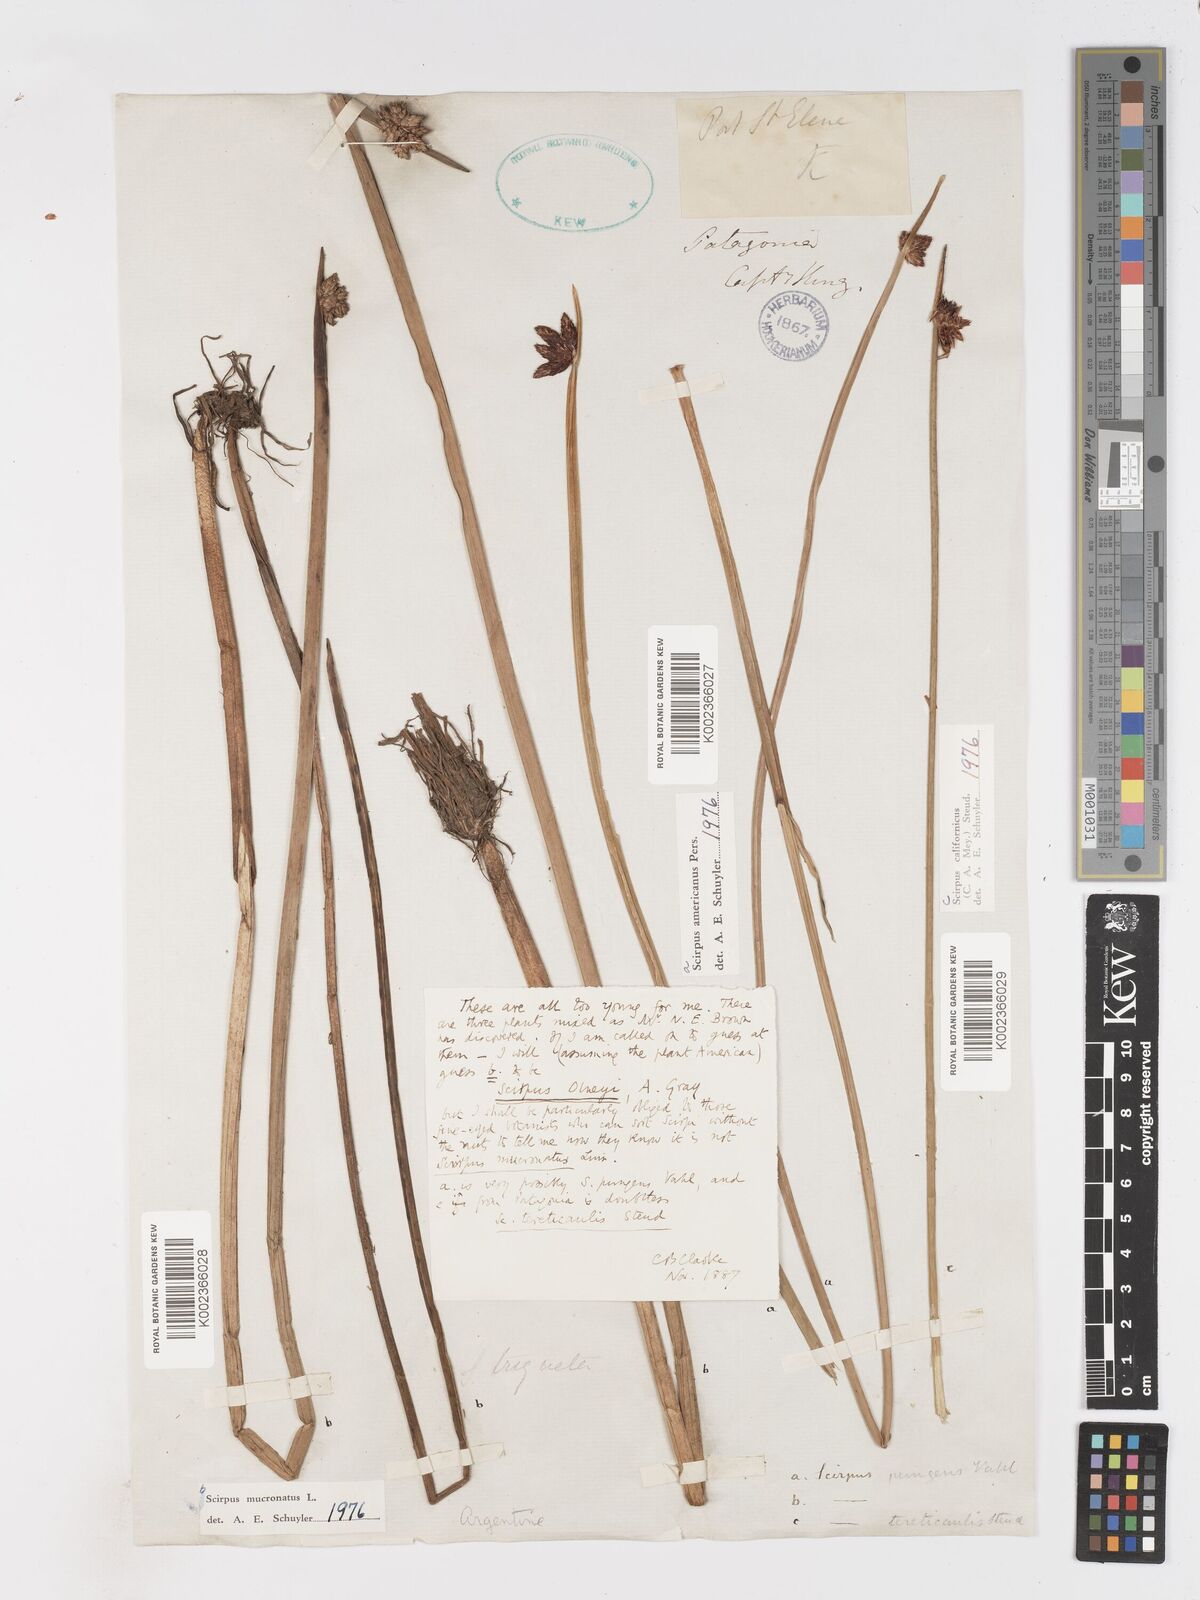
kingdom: Plantae
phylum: Tracheophyta
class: Liliopsida
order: Poales
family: Cyperaceae
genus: Schoenoplectus
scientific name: Schoenoplectus americanus
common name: American three-square bulrush
